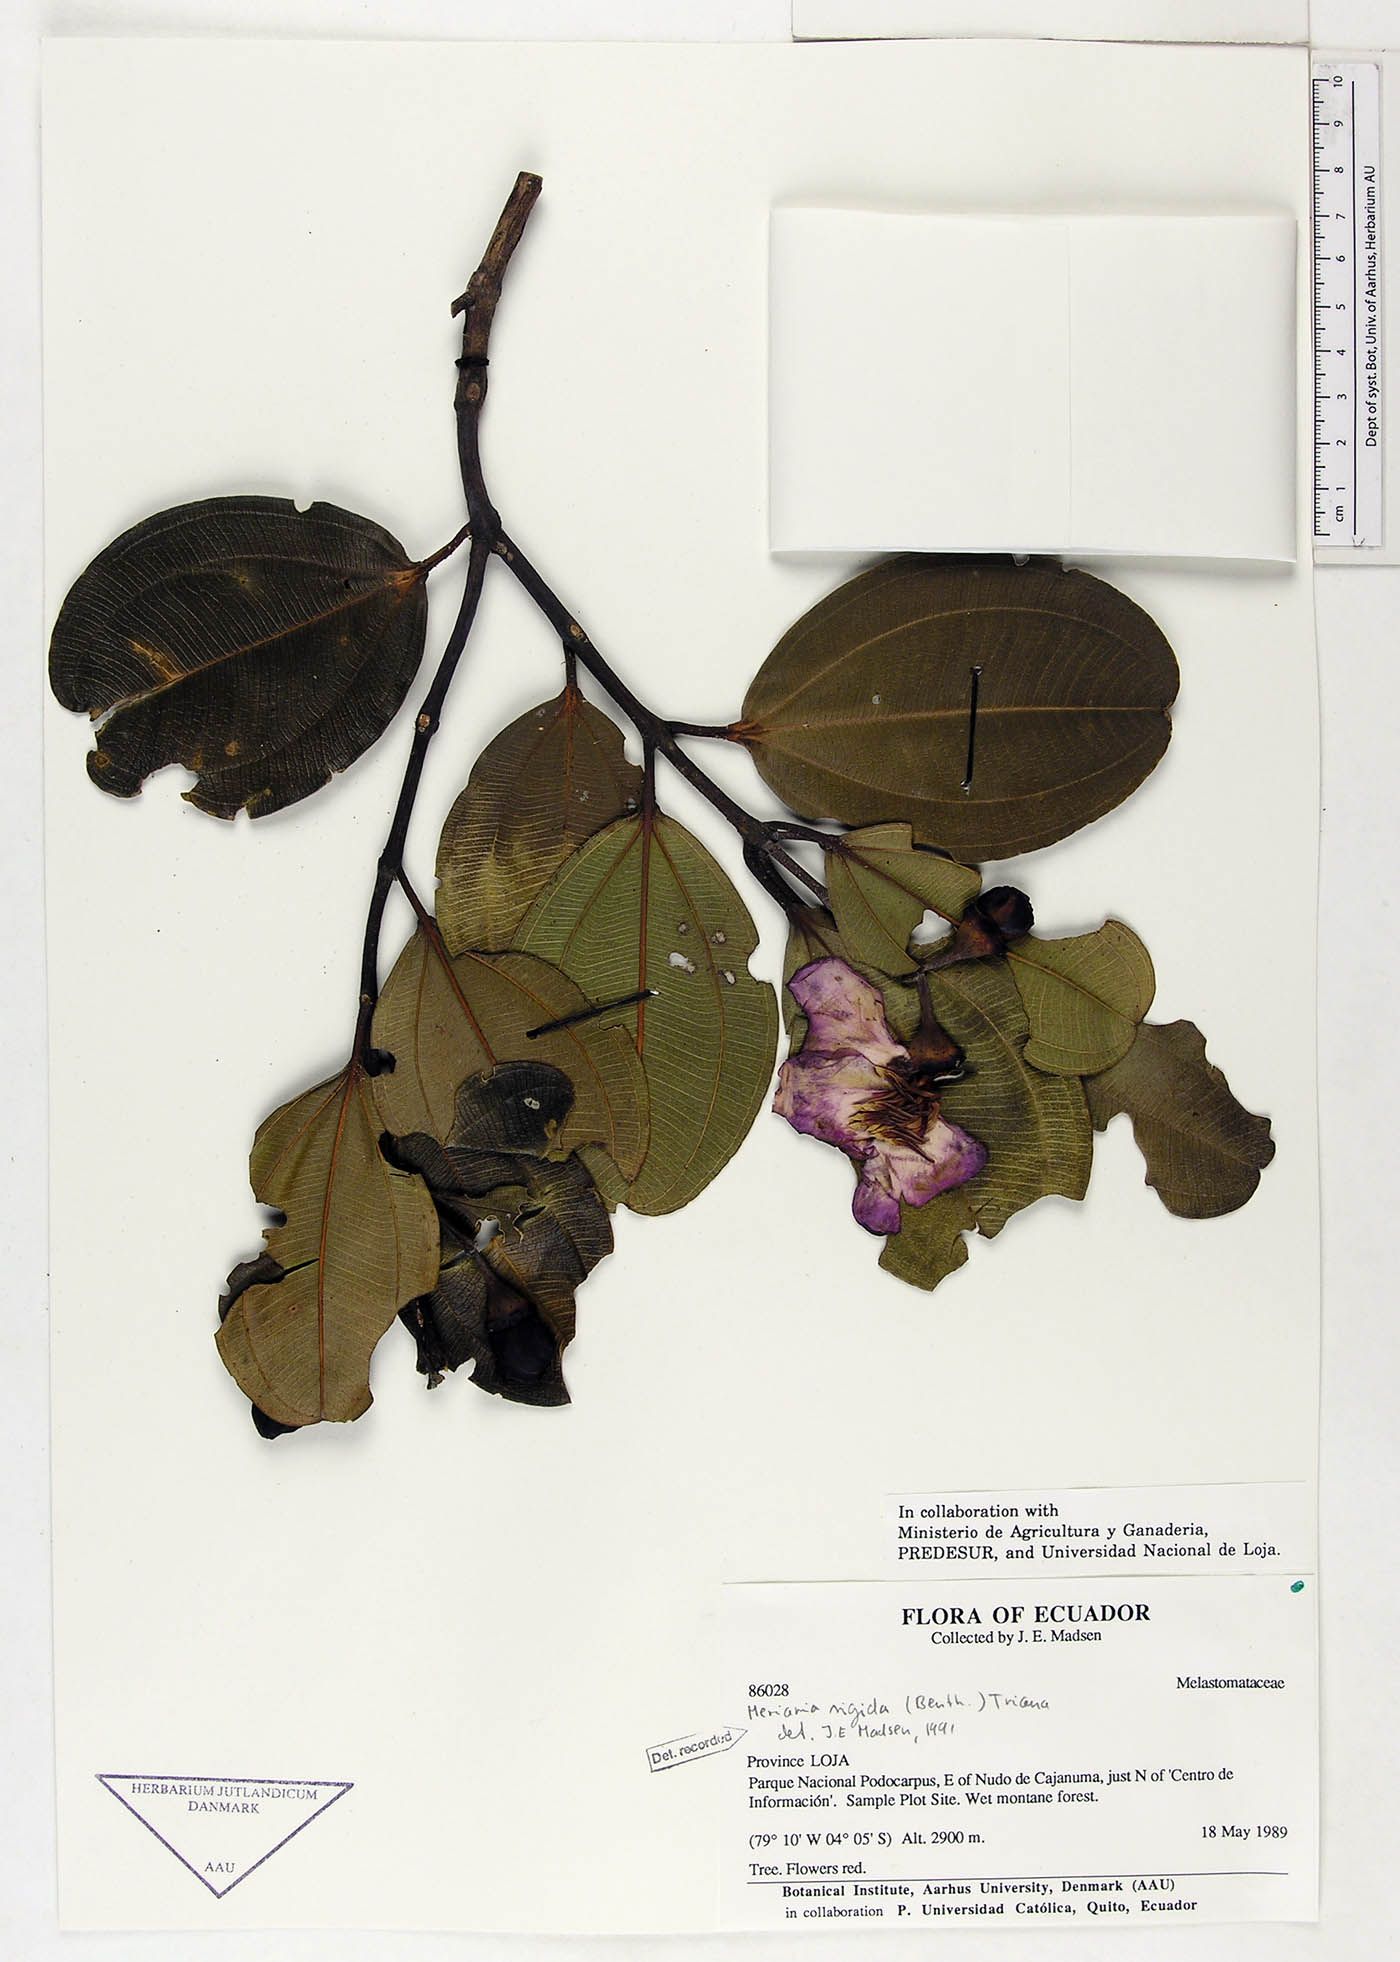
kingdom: Plantae
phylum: Tracheophyta
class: Magnoliopsida
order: Myrtales
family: Melastomataceae
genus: Meriania
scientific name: Meriania rigida
